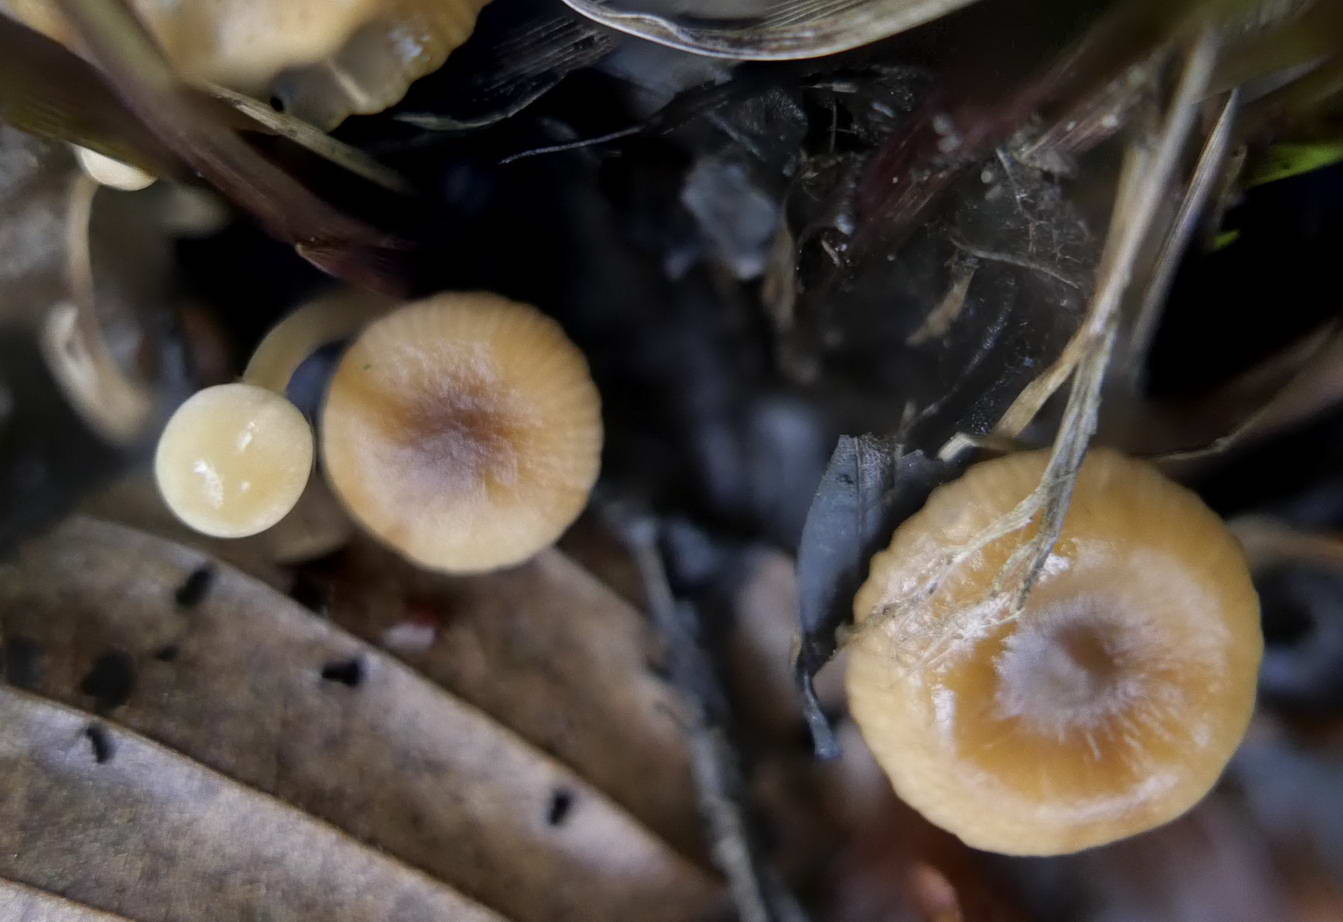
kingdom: Fungi
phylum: Basidiomycota
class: Agaricomycetes
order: Russulales
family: Russulaceae
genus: Lactarius
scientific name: Lactarius
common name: mælkehat
